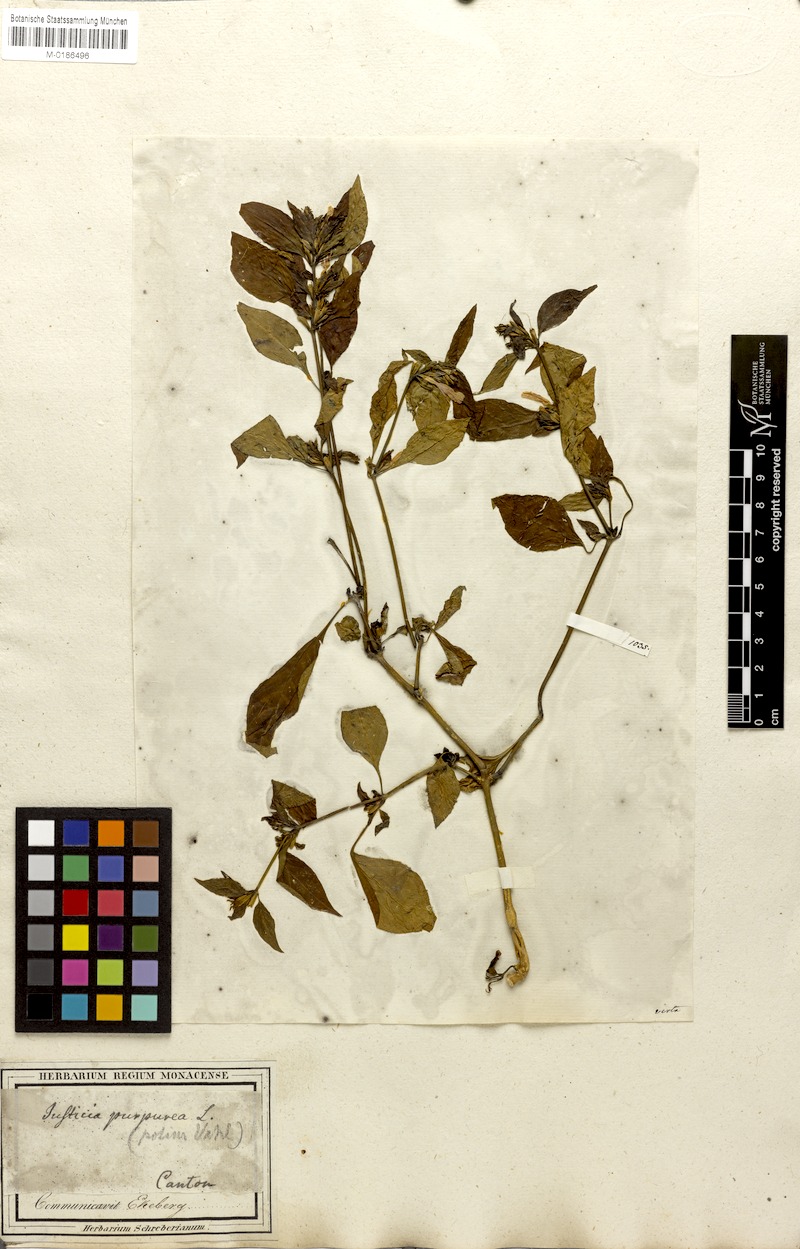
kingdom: Plantae
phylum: Tracheophyta
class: Magnoliopsida
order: Lamiales
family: Acanthaceae
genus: Hypoestes
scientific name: Hypoestes purpurea
